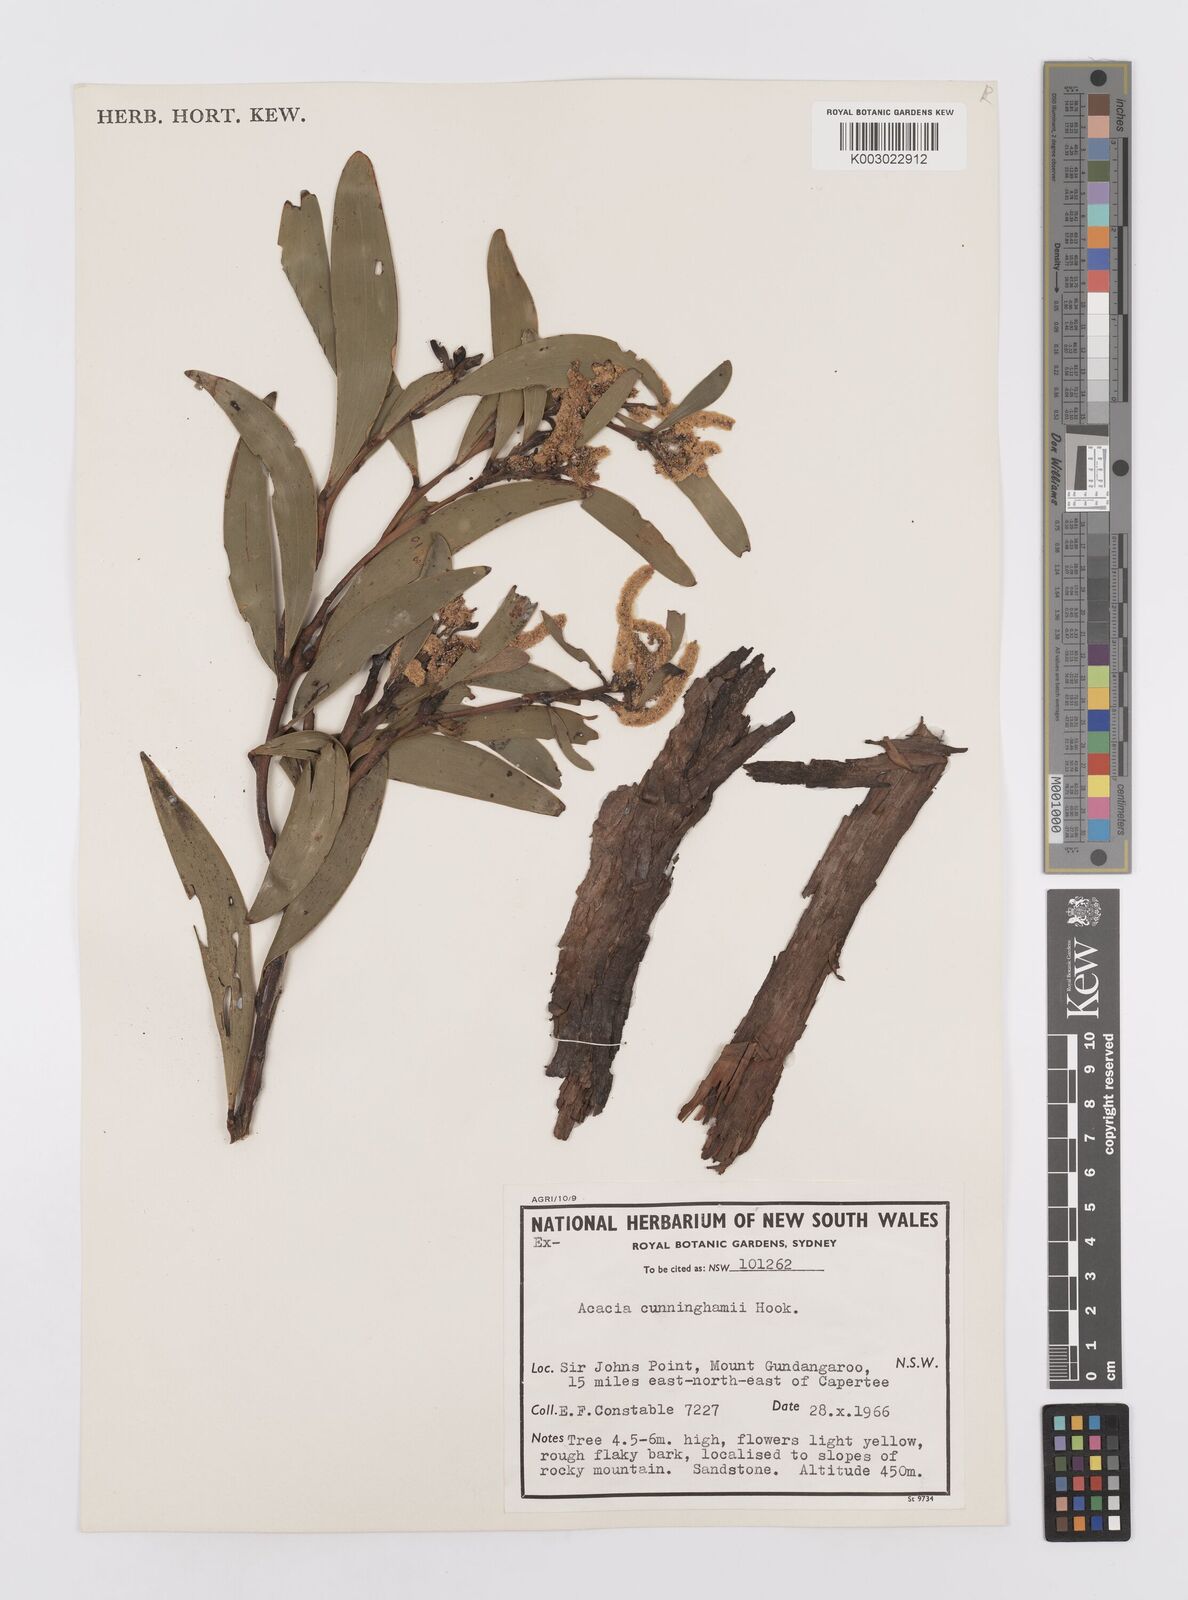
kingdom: Plantae
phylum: Tracheophyta
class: Magnoliopsida
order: Fabales
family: Fabaceae
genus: Acacia
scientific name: Acacia longispicata
